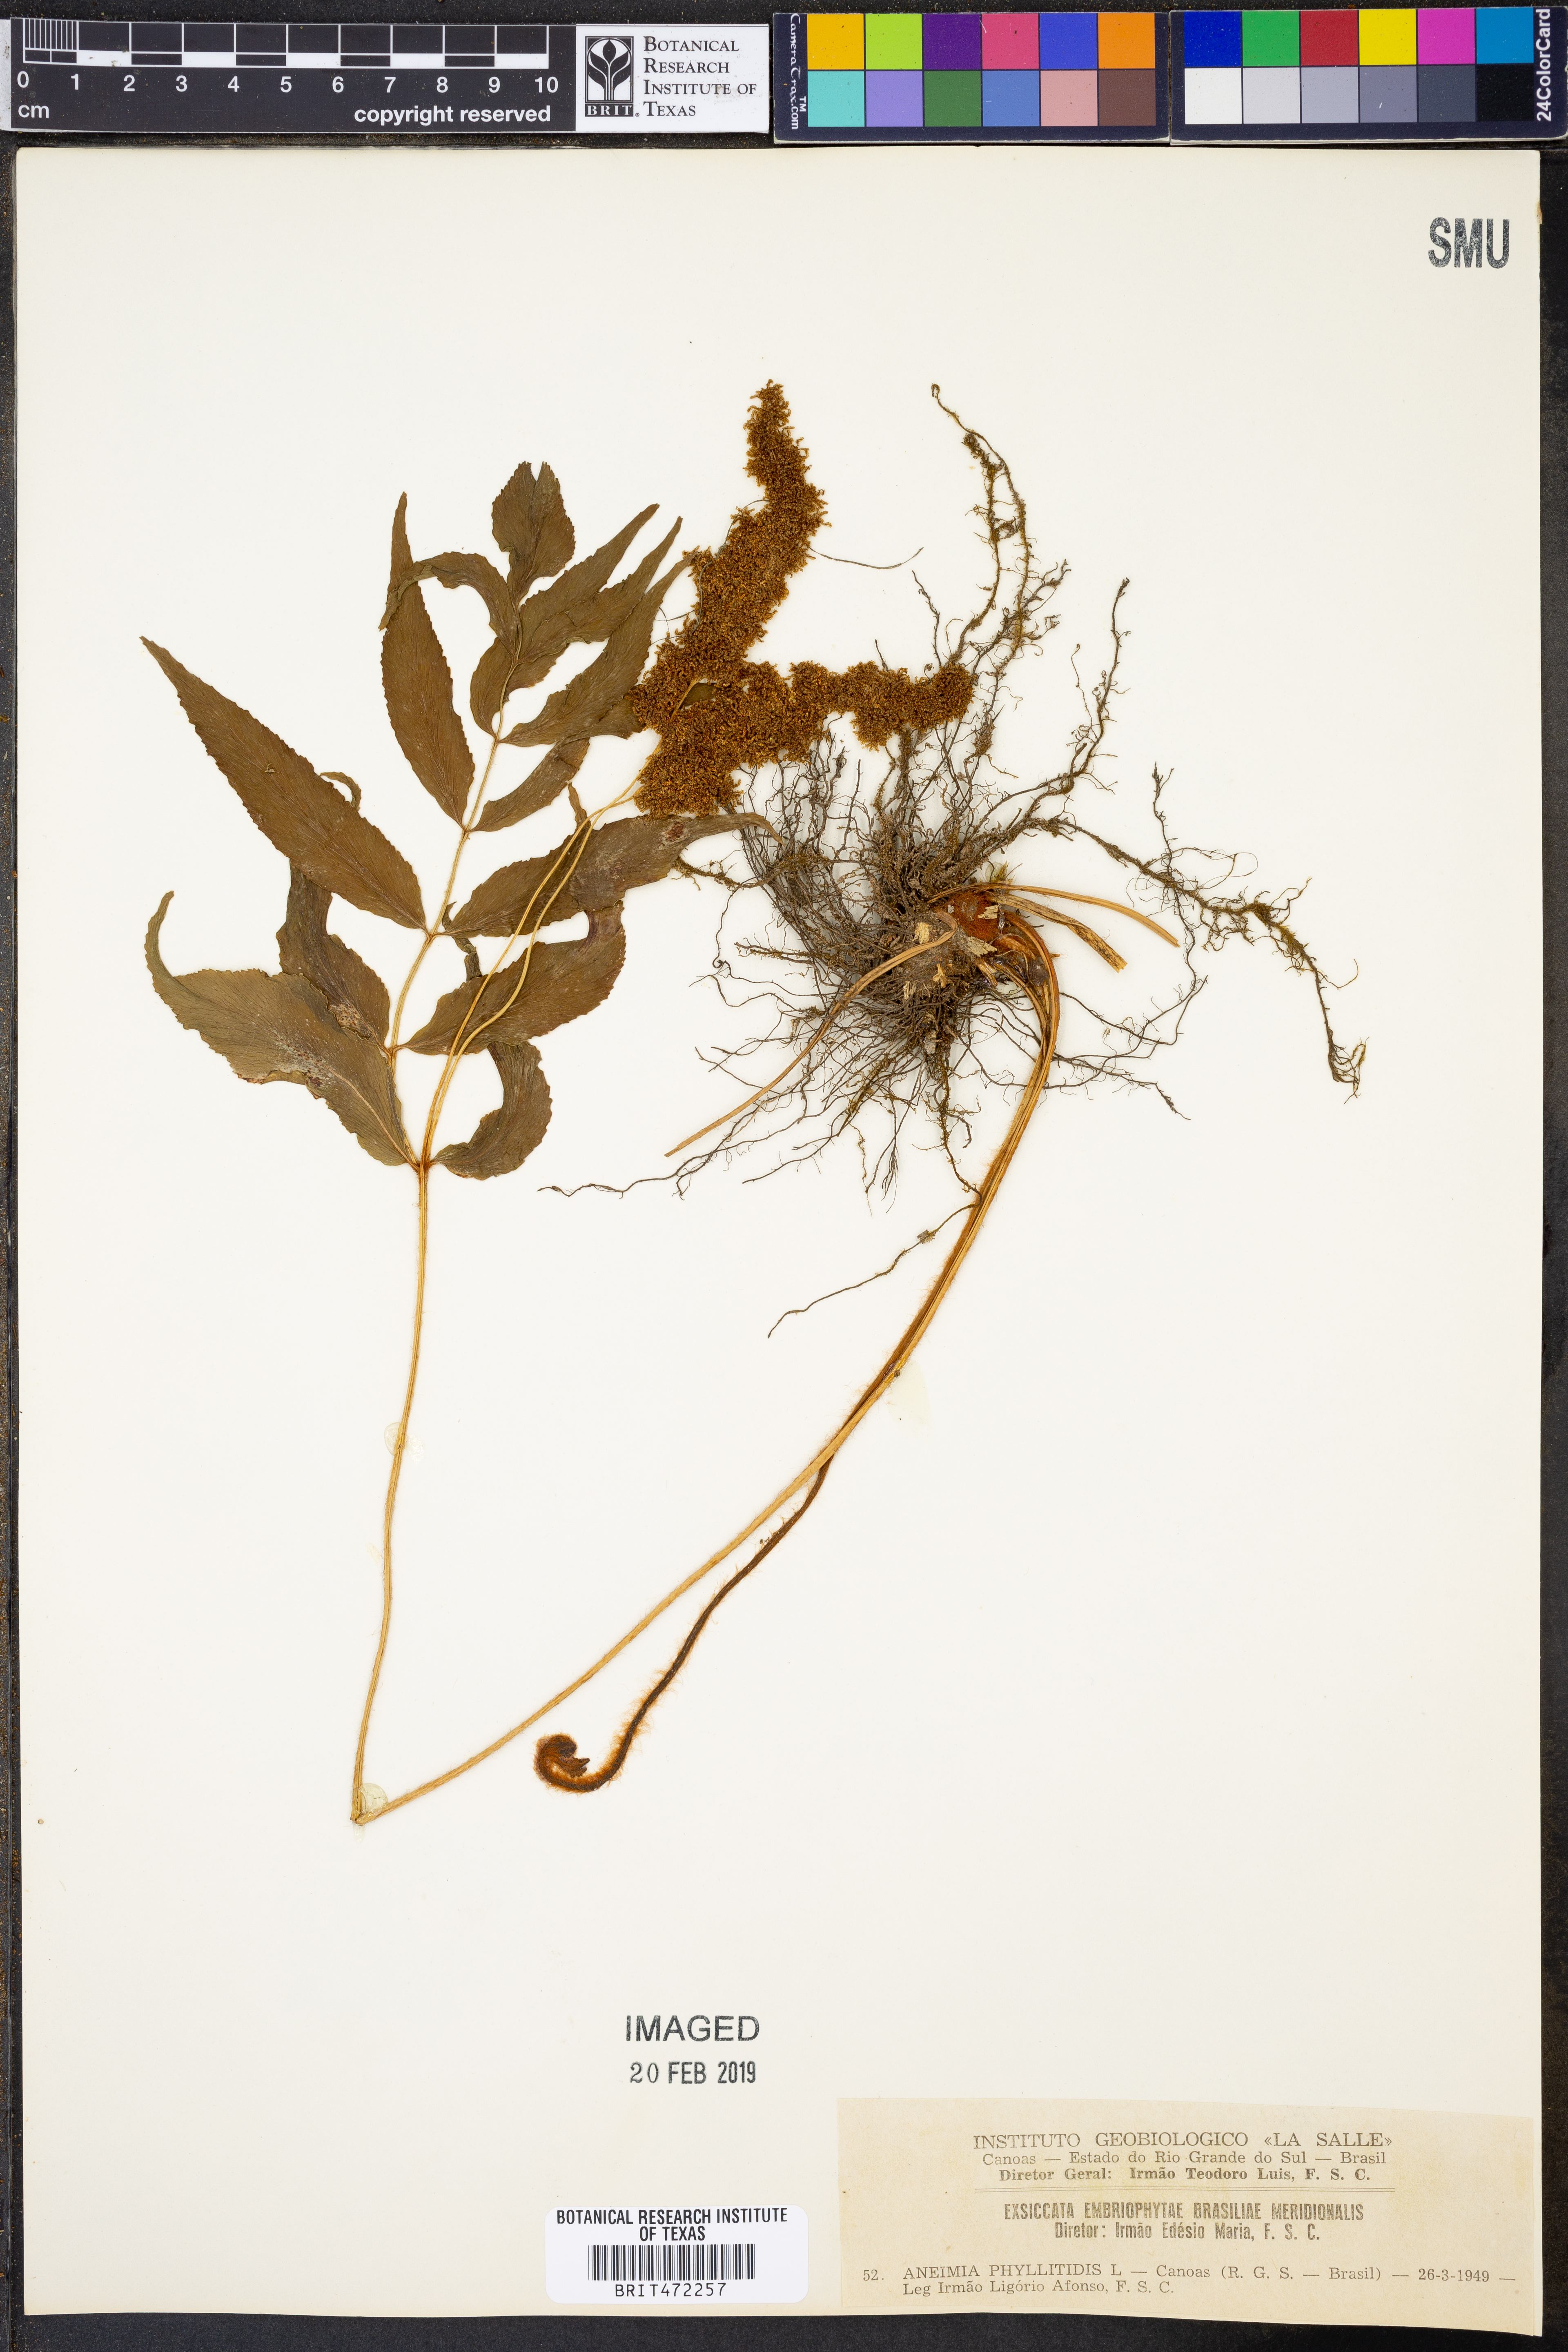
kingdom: Plantae
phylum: Tracheophyta
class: Polypodiopsida
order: Schizaeales
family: Anemiaceae
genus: Anemia
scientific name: Anemia phyllitidis
